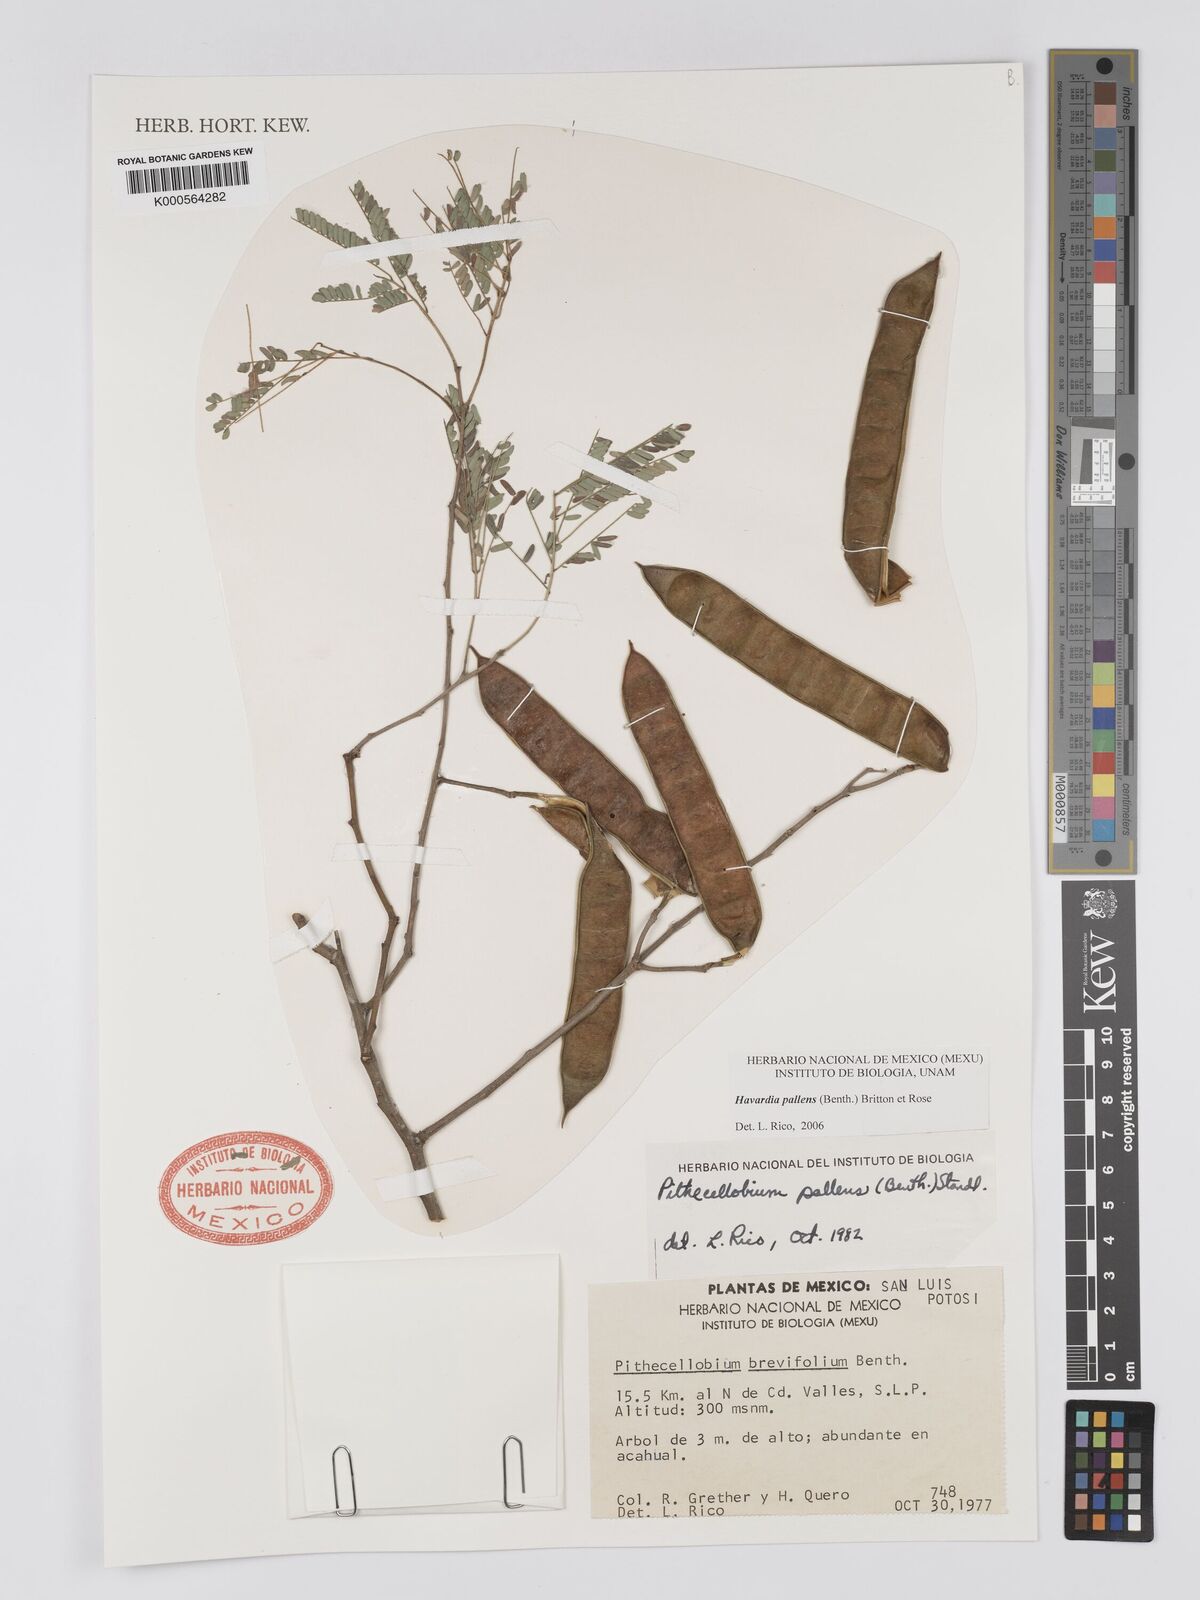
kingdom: Plantae
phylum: Tracheophyta
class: Magnoliopsida
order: Fabales
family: Fabaceae
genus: Havardia
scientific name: Havardia pallens
